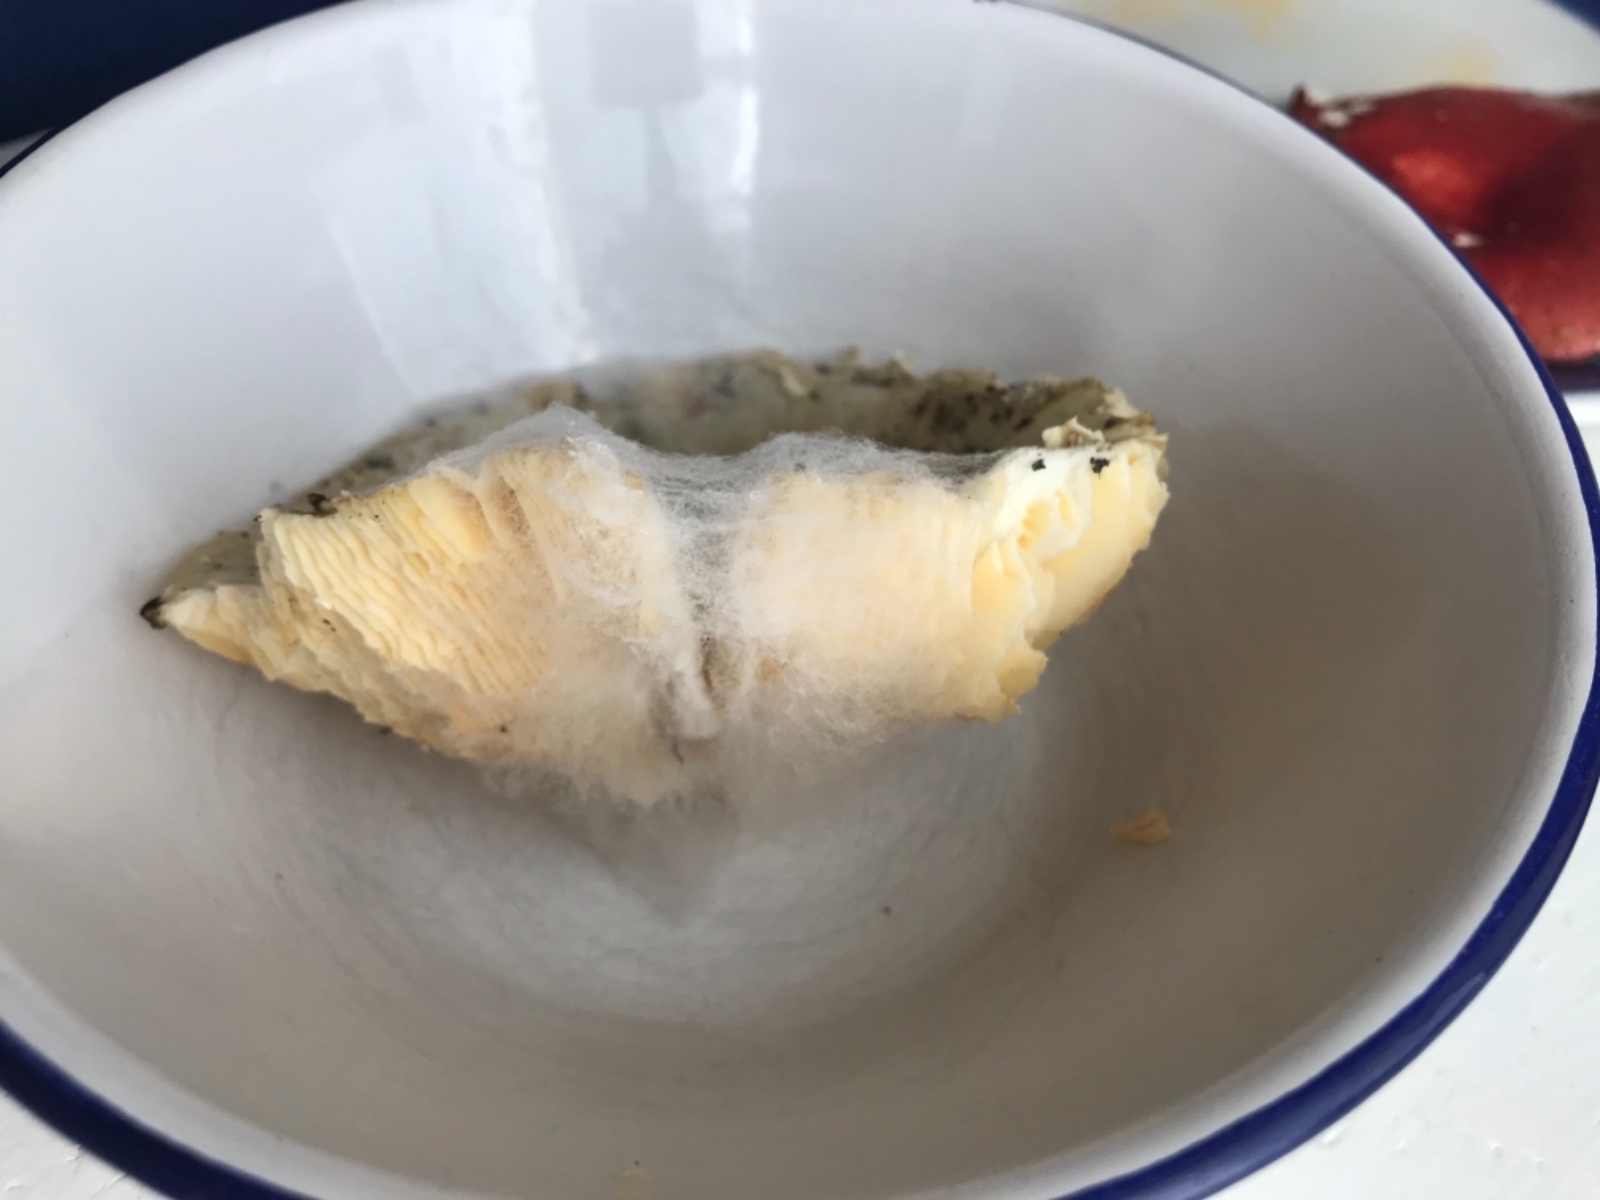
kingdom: Fungi
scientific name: Fungi
